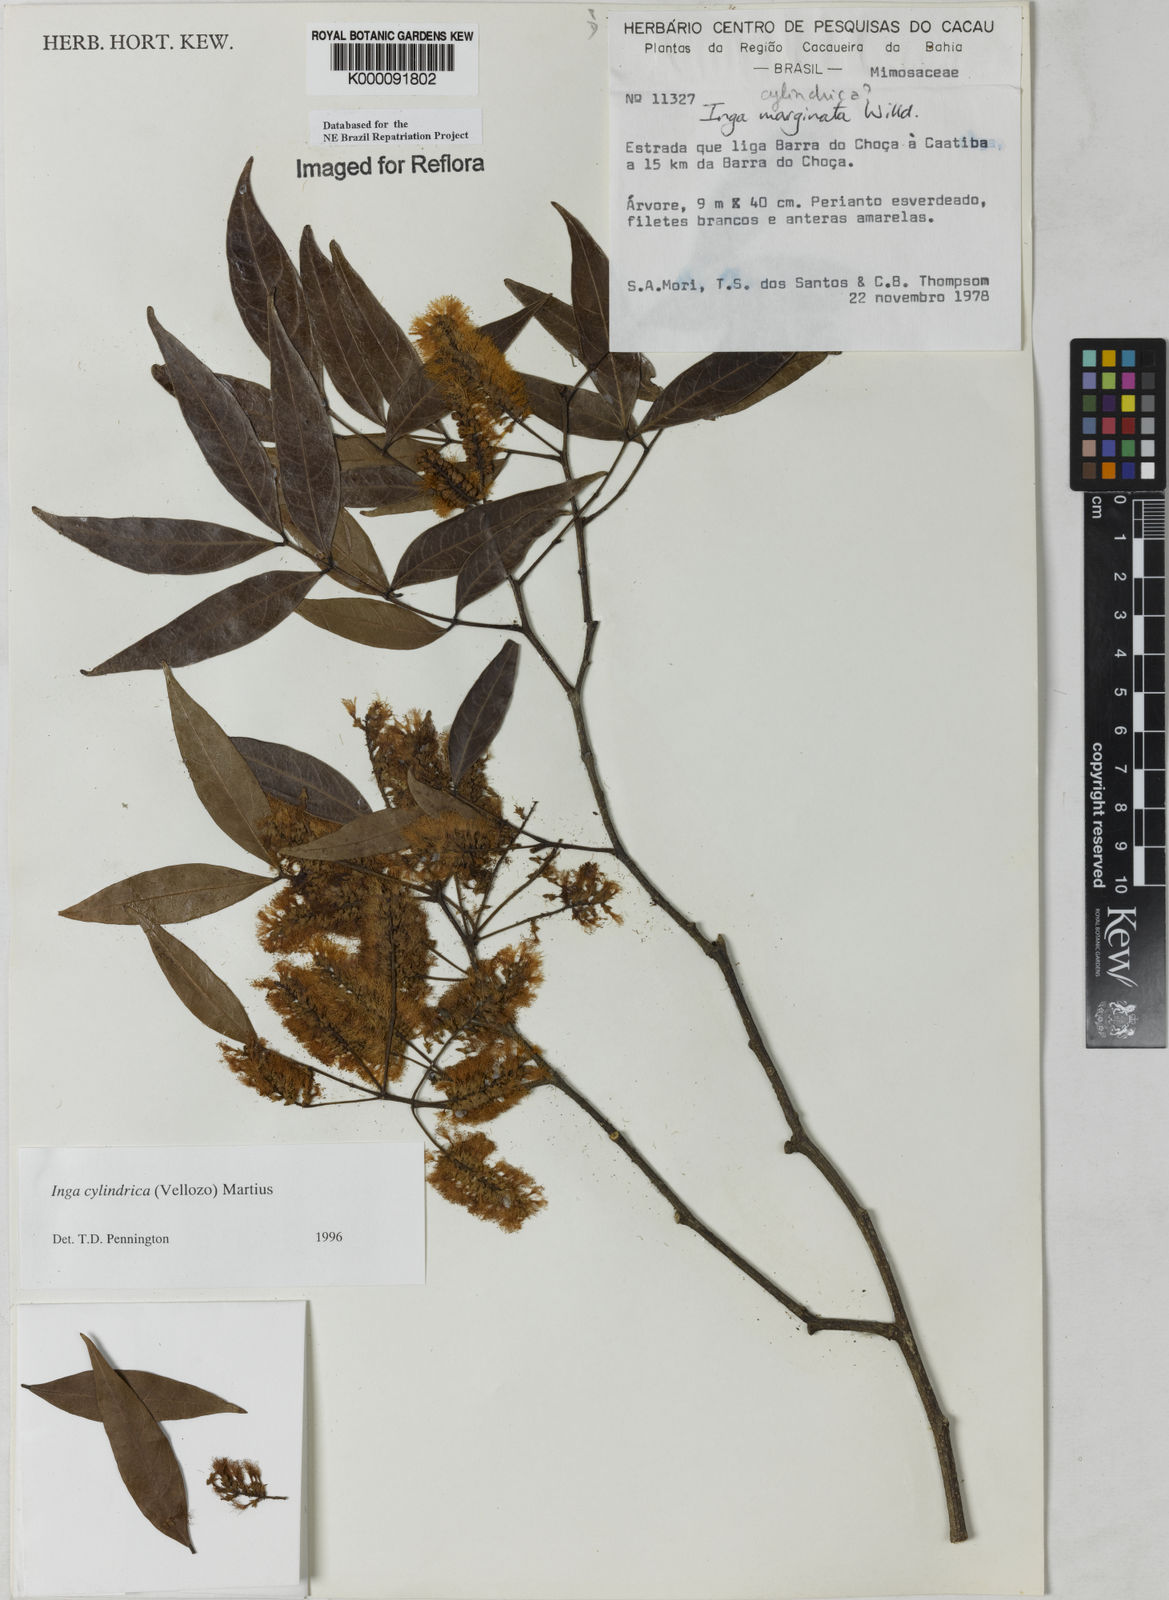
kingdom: Plantae
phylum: Tracheophyta
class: Magnoliopsida
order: Fabales
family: Fabaceae
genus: Inga
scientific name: Inga cylindrica
